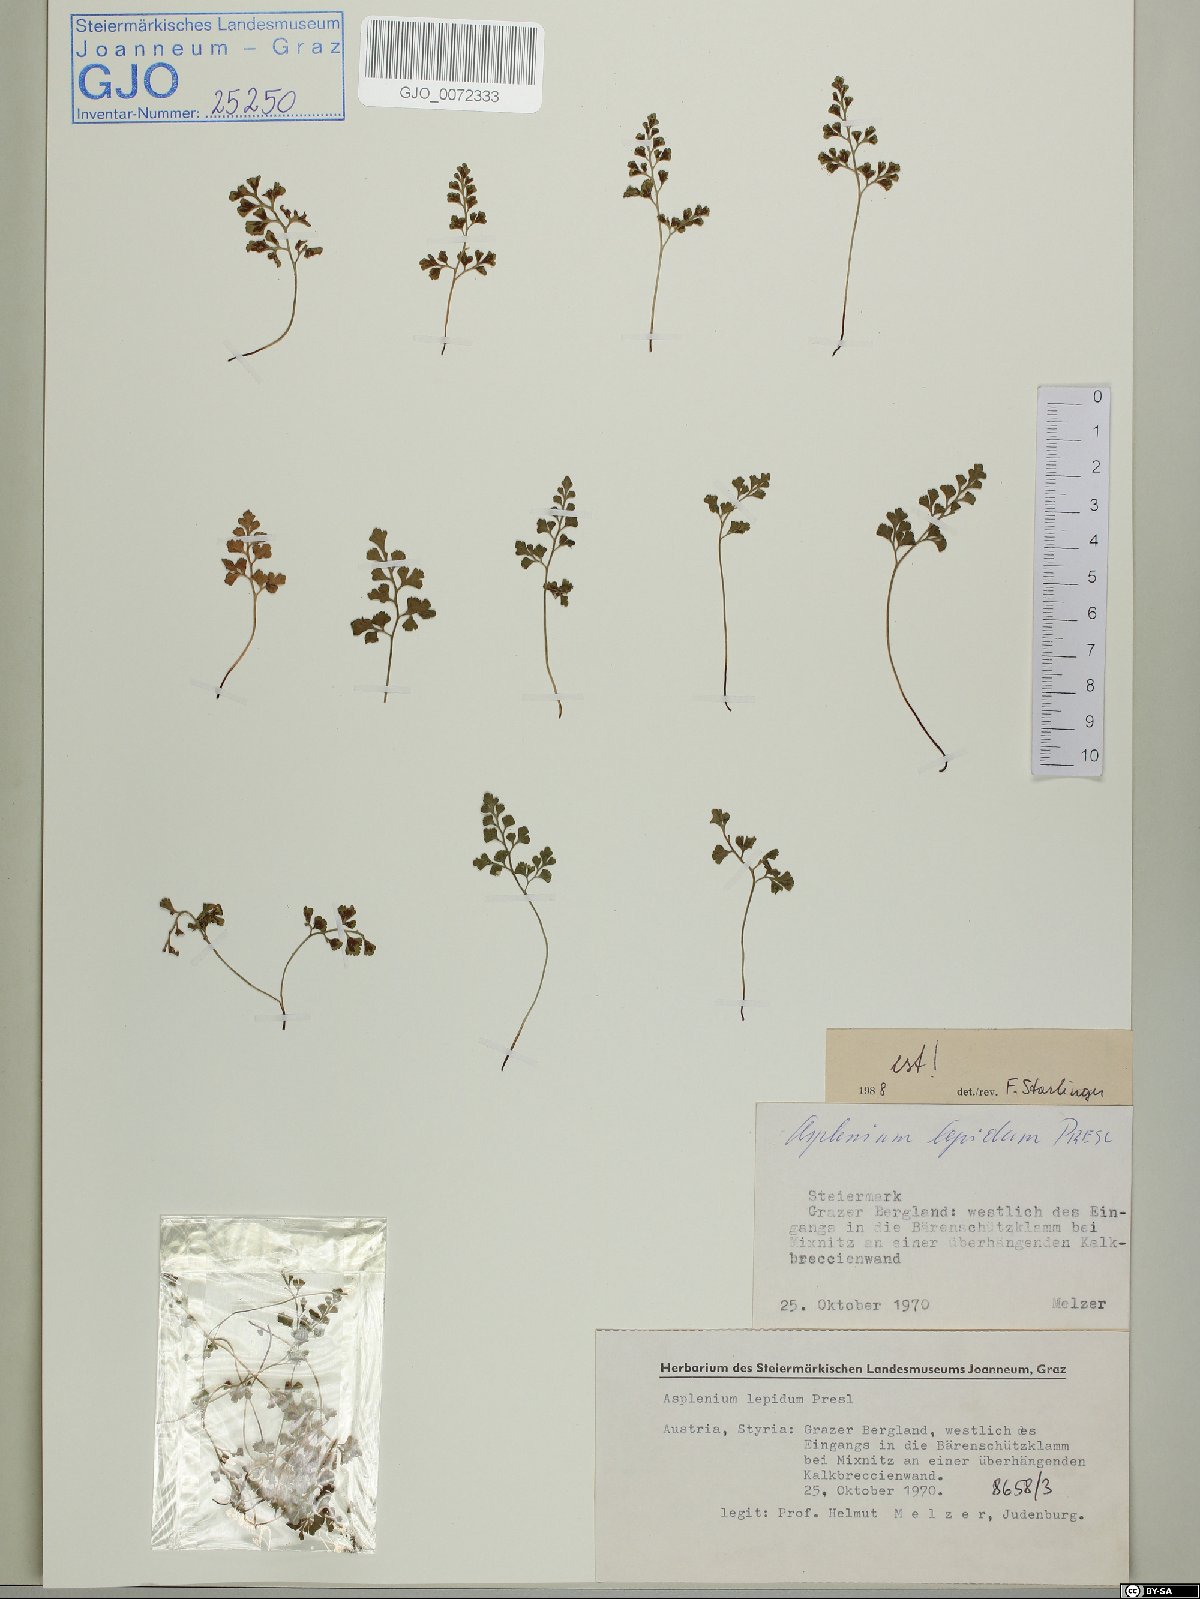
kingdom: Plantae
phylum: Tracheophyta
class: Polypodiopsida
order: Polypodiales
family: Aspleniaceae
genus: Asplenium
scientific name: Asplenium lepidum
